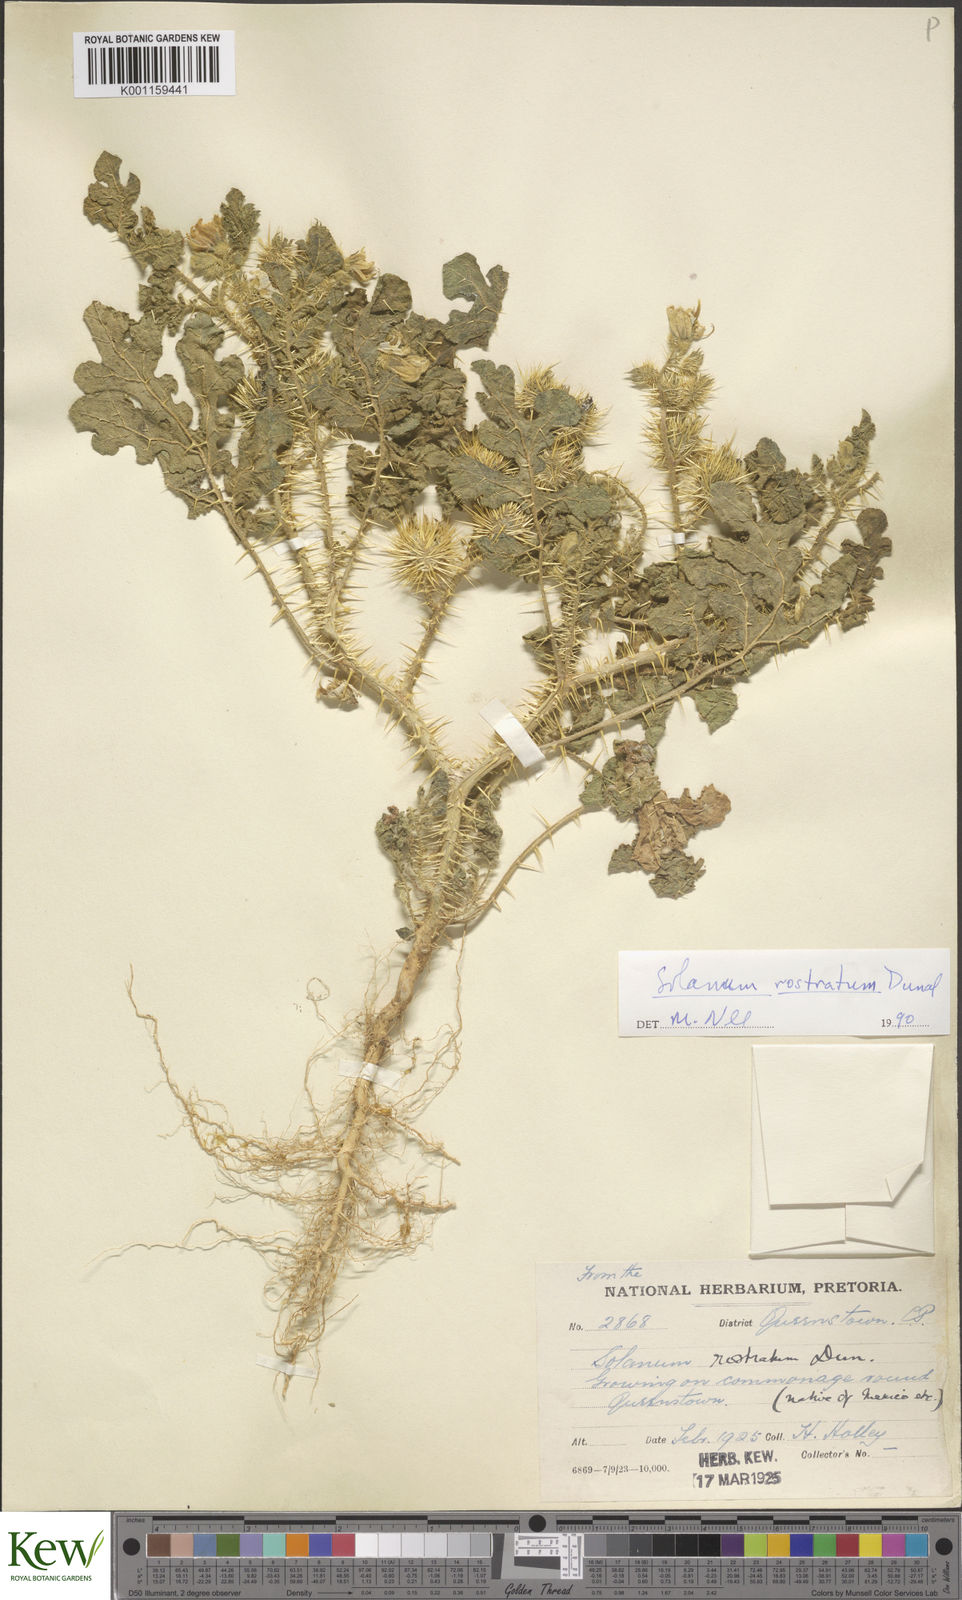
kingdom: Plantae
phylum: Tracheophyta
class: Magnoliopsida
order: Solanales
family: Solanaceae
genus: Solanum
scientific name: Solanum angustifolium
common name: Buffalobur nightshade
